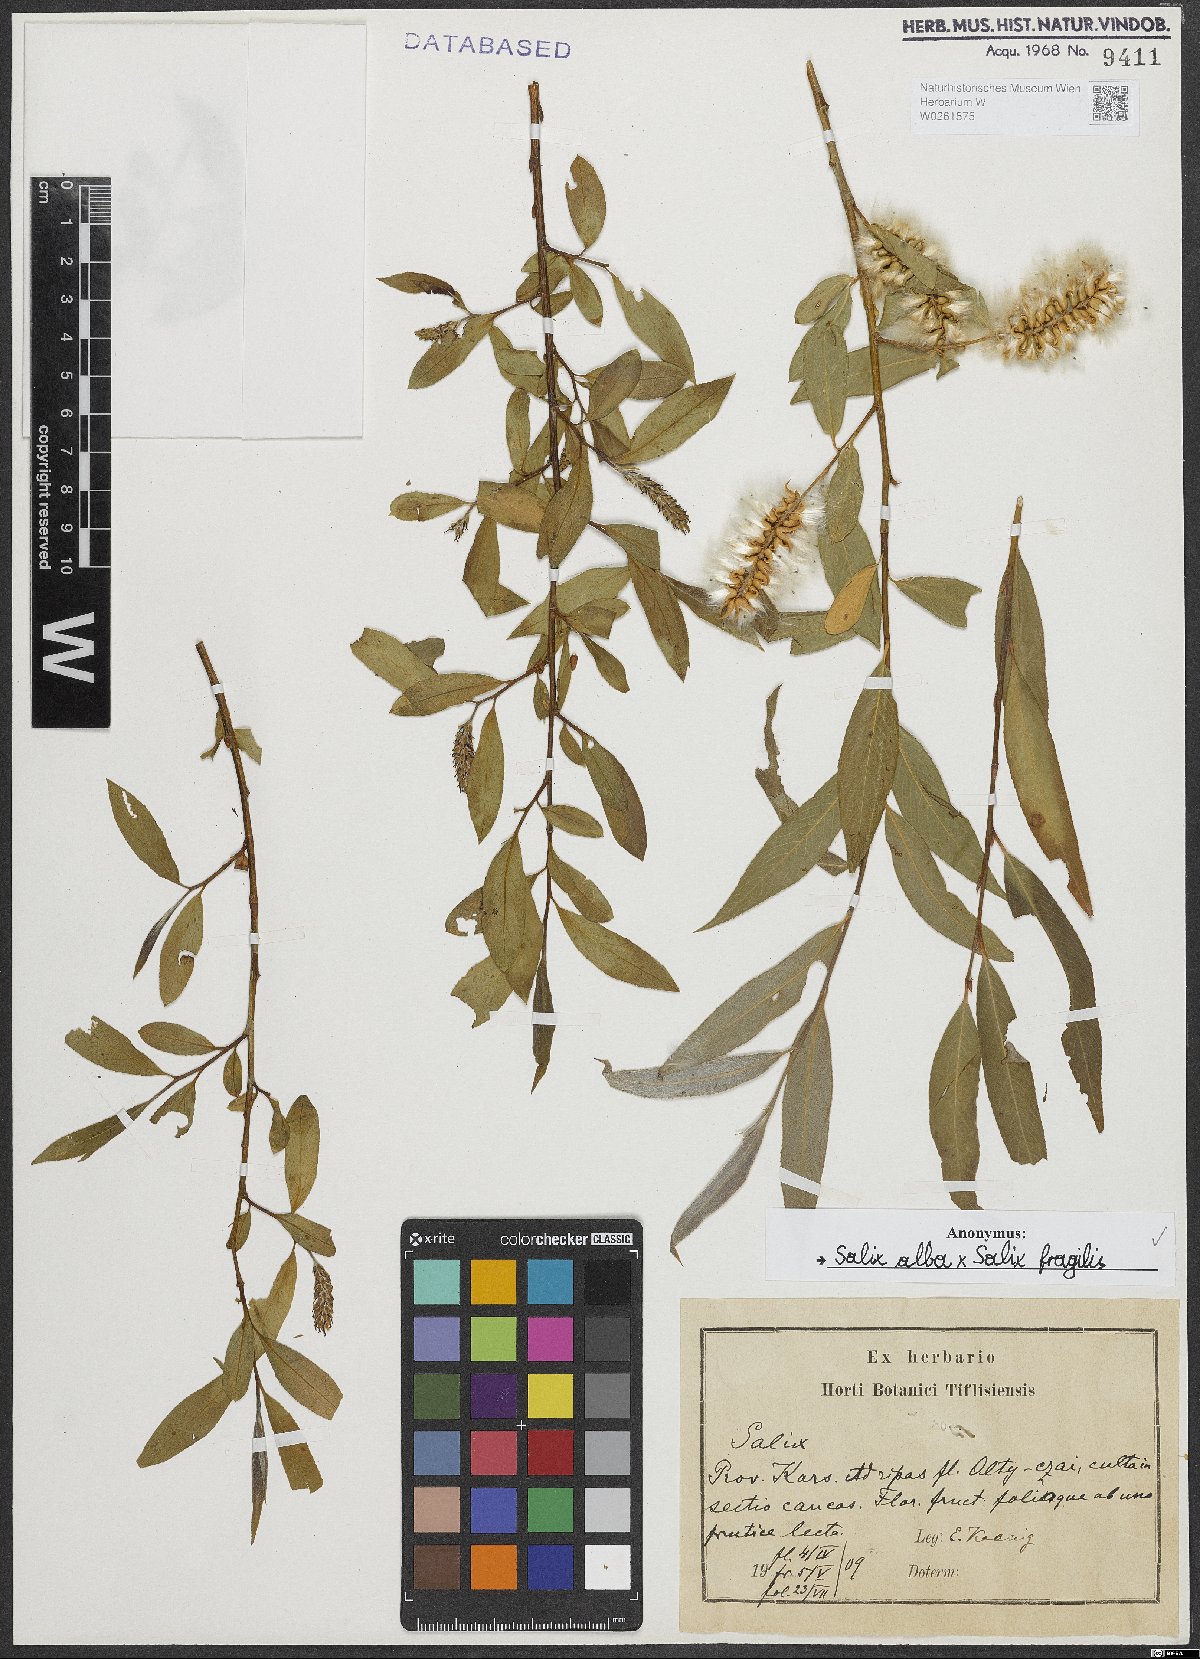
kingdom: Plantae
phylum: Tracheophyta
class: Magnoliopsida
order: Malpighiales
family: Salicaceae
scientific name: Salicaceae
